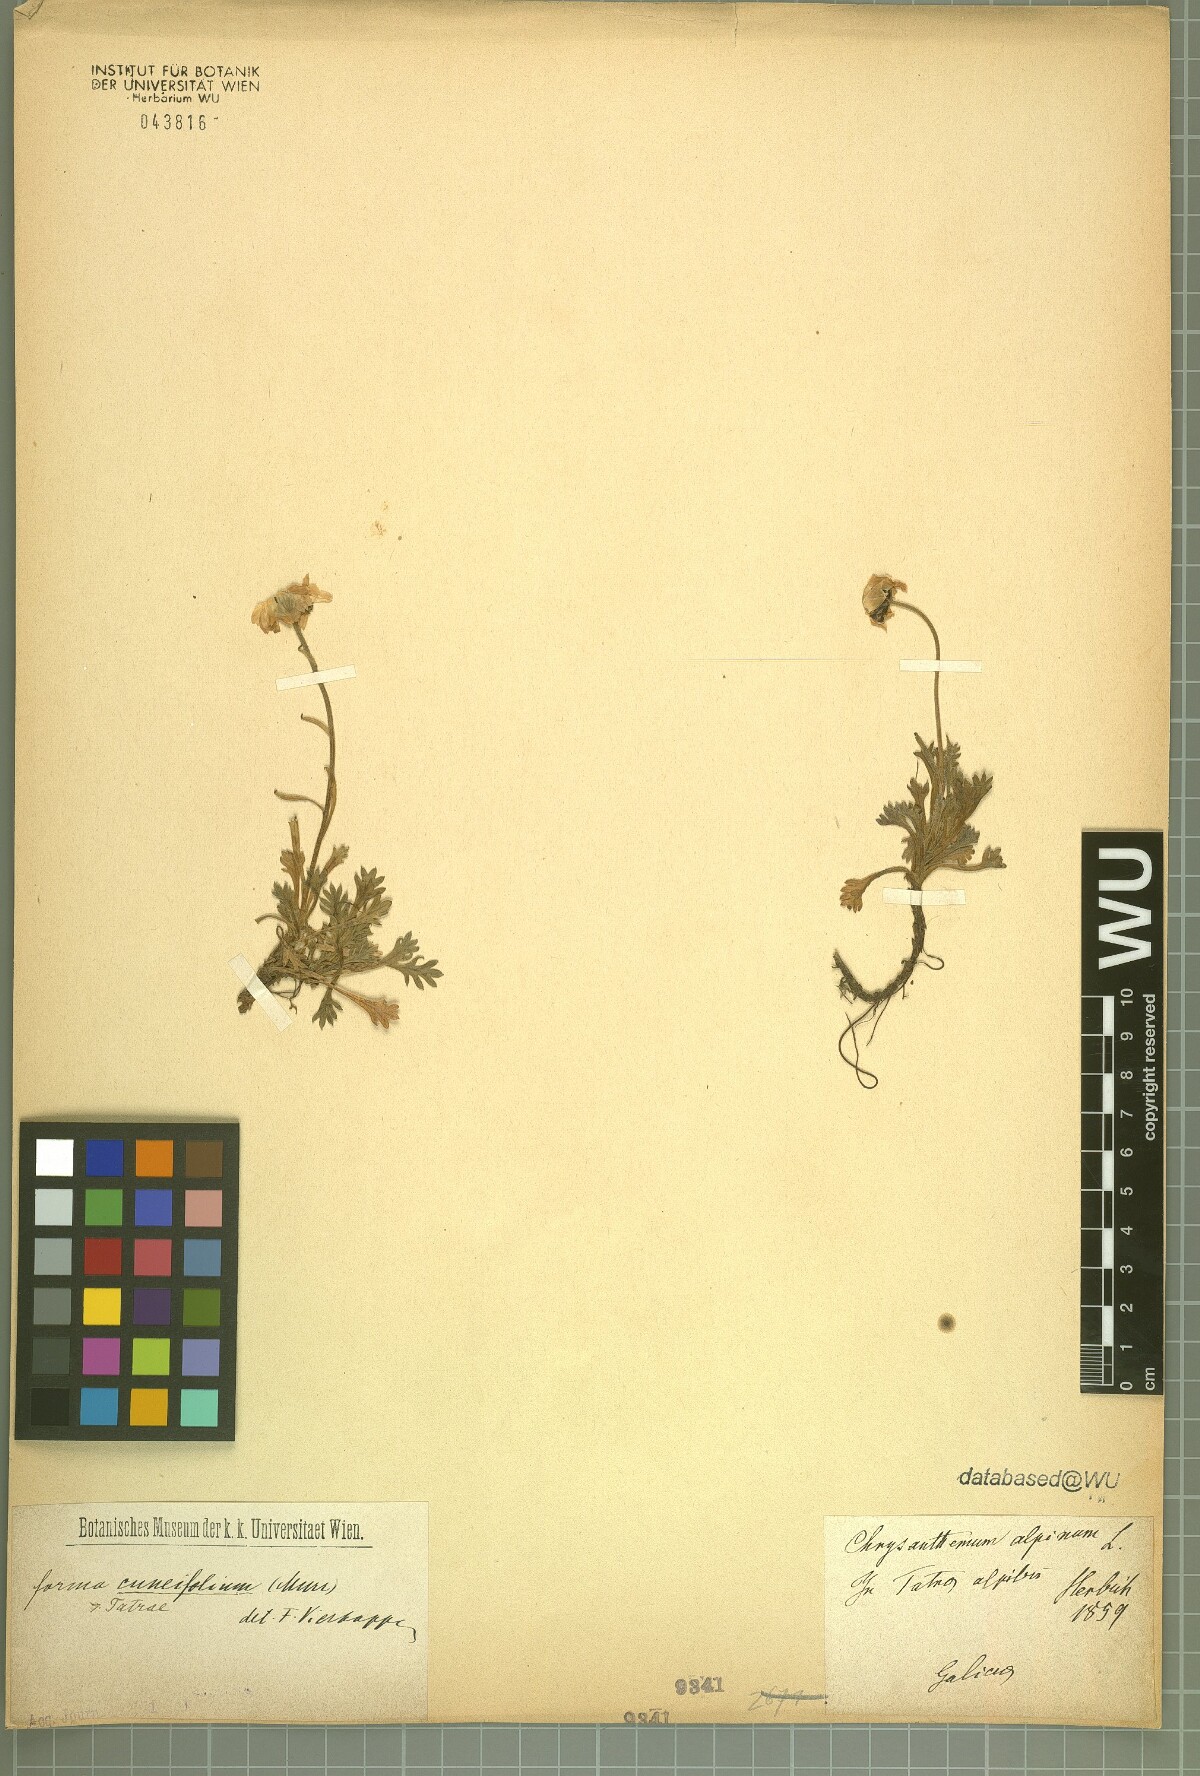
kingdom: Plantae
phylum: Tracheophyta
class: Magnoliopsida
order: Asterales
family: Asteraceae
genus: Leucanthemopsis
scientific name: Leucanthemopsis alpina
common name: Alpine moon daisy
